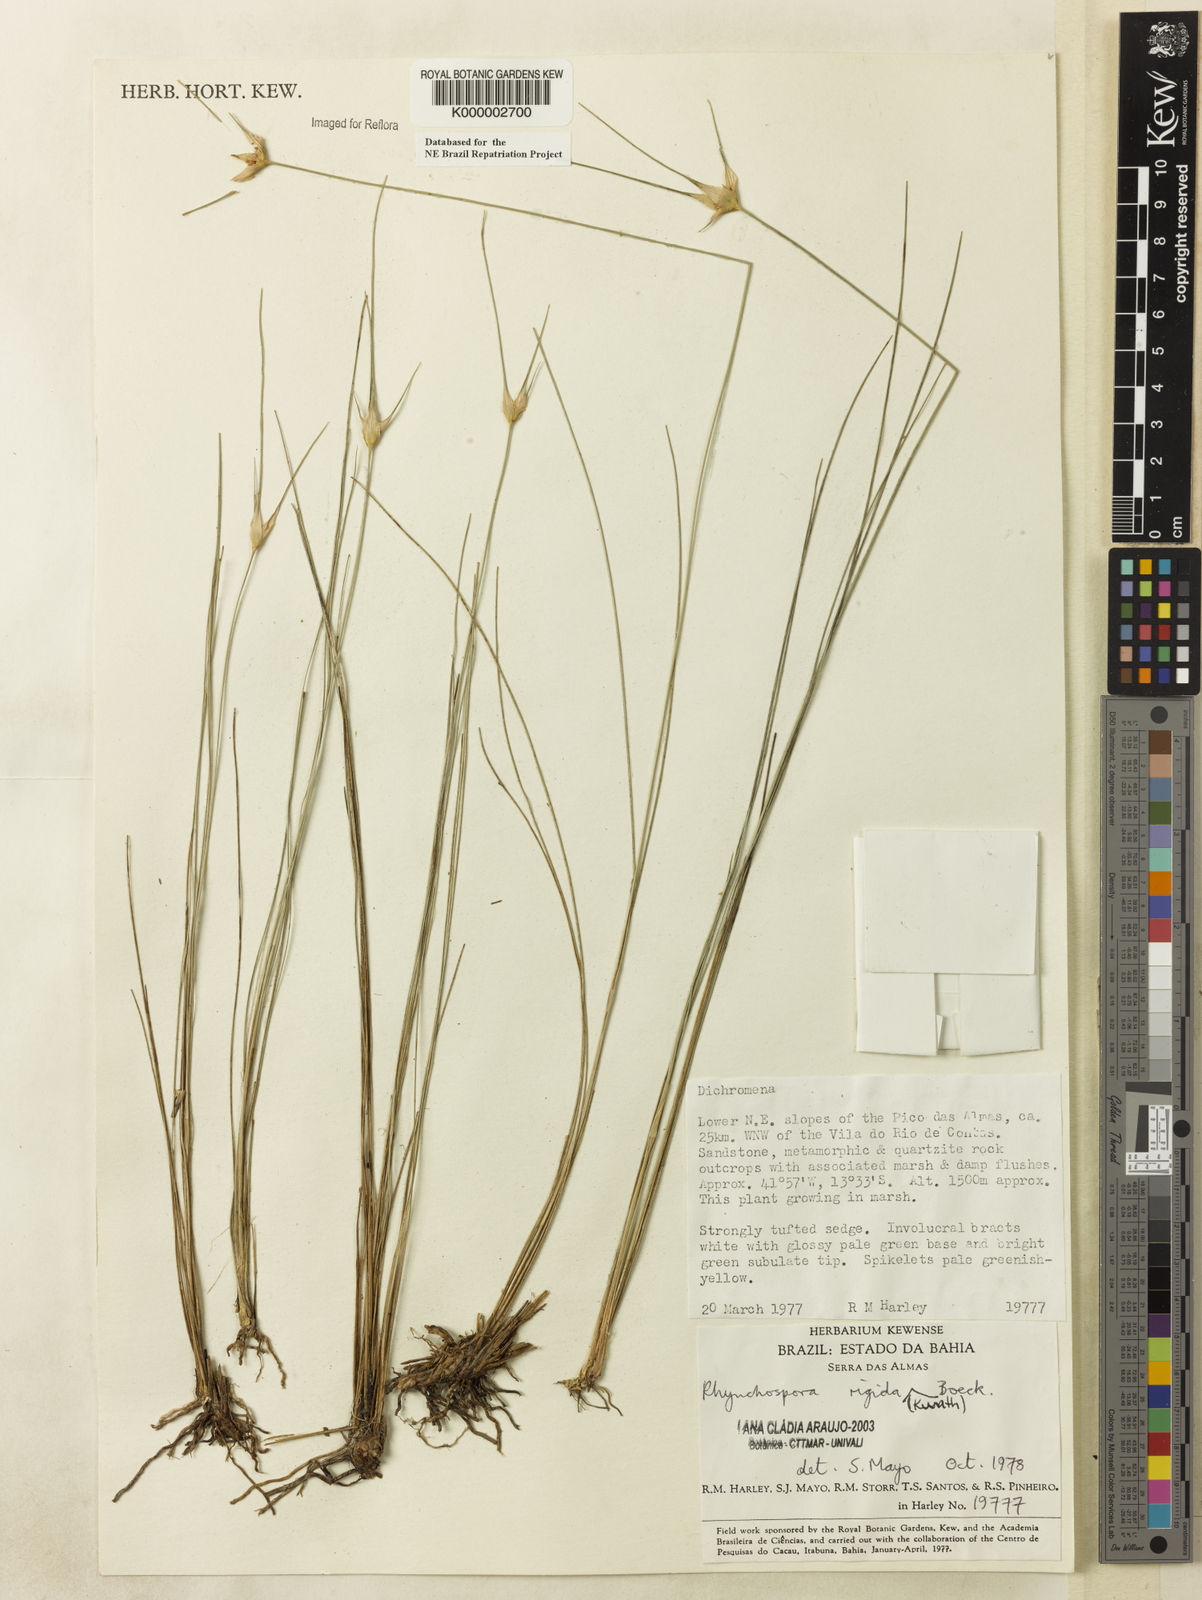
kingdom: Plantae
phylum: Tracheophyta
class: Liliopsida
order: Poales
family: Cyperaceae
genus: Rhynchospora
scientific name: Rhynchospora consanguinea
